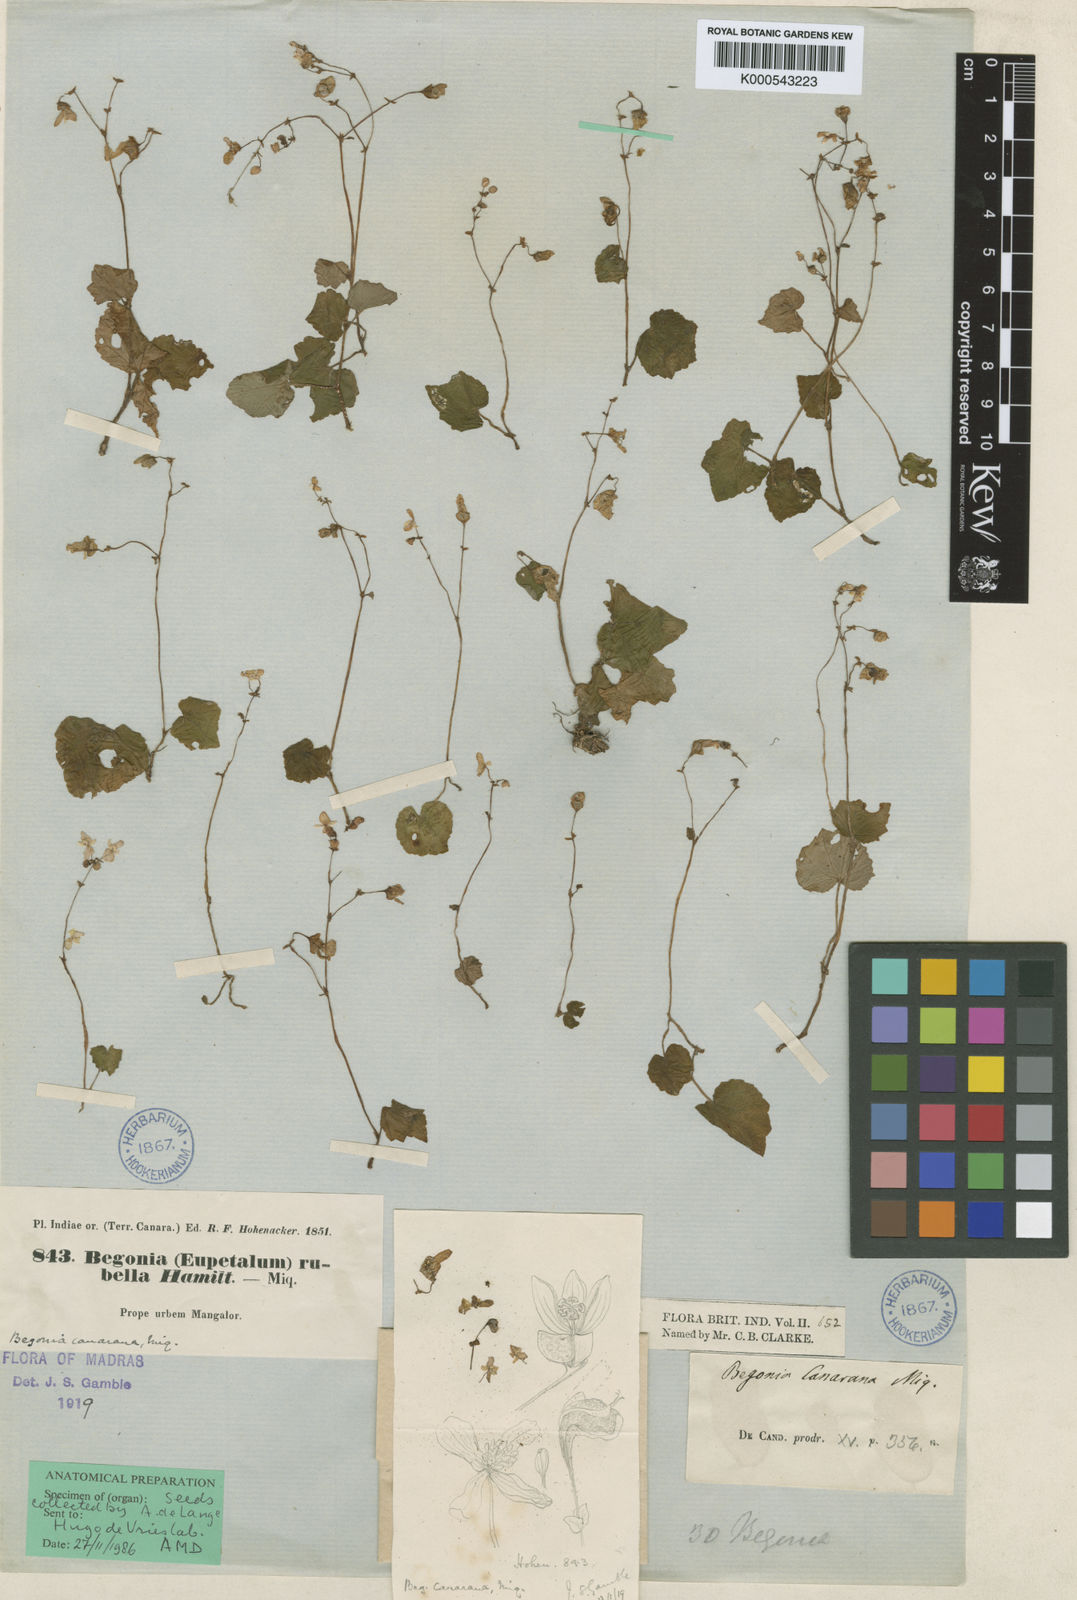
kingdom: Plantae
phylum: Tracheophyta
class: Magnoliopsida
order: Cucurbitales
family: Begoniaceae
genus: Begonia
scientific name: Begonia canarana
